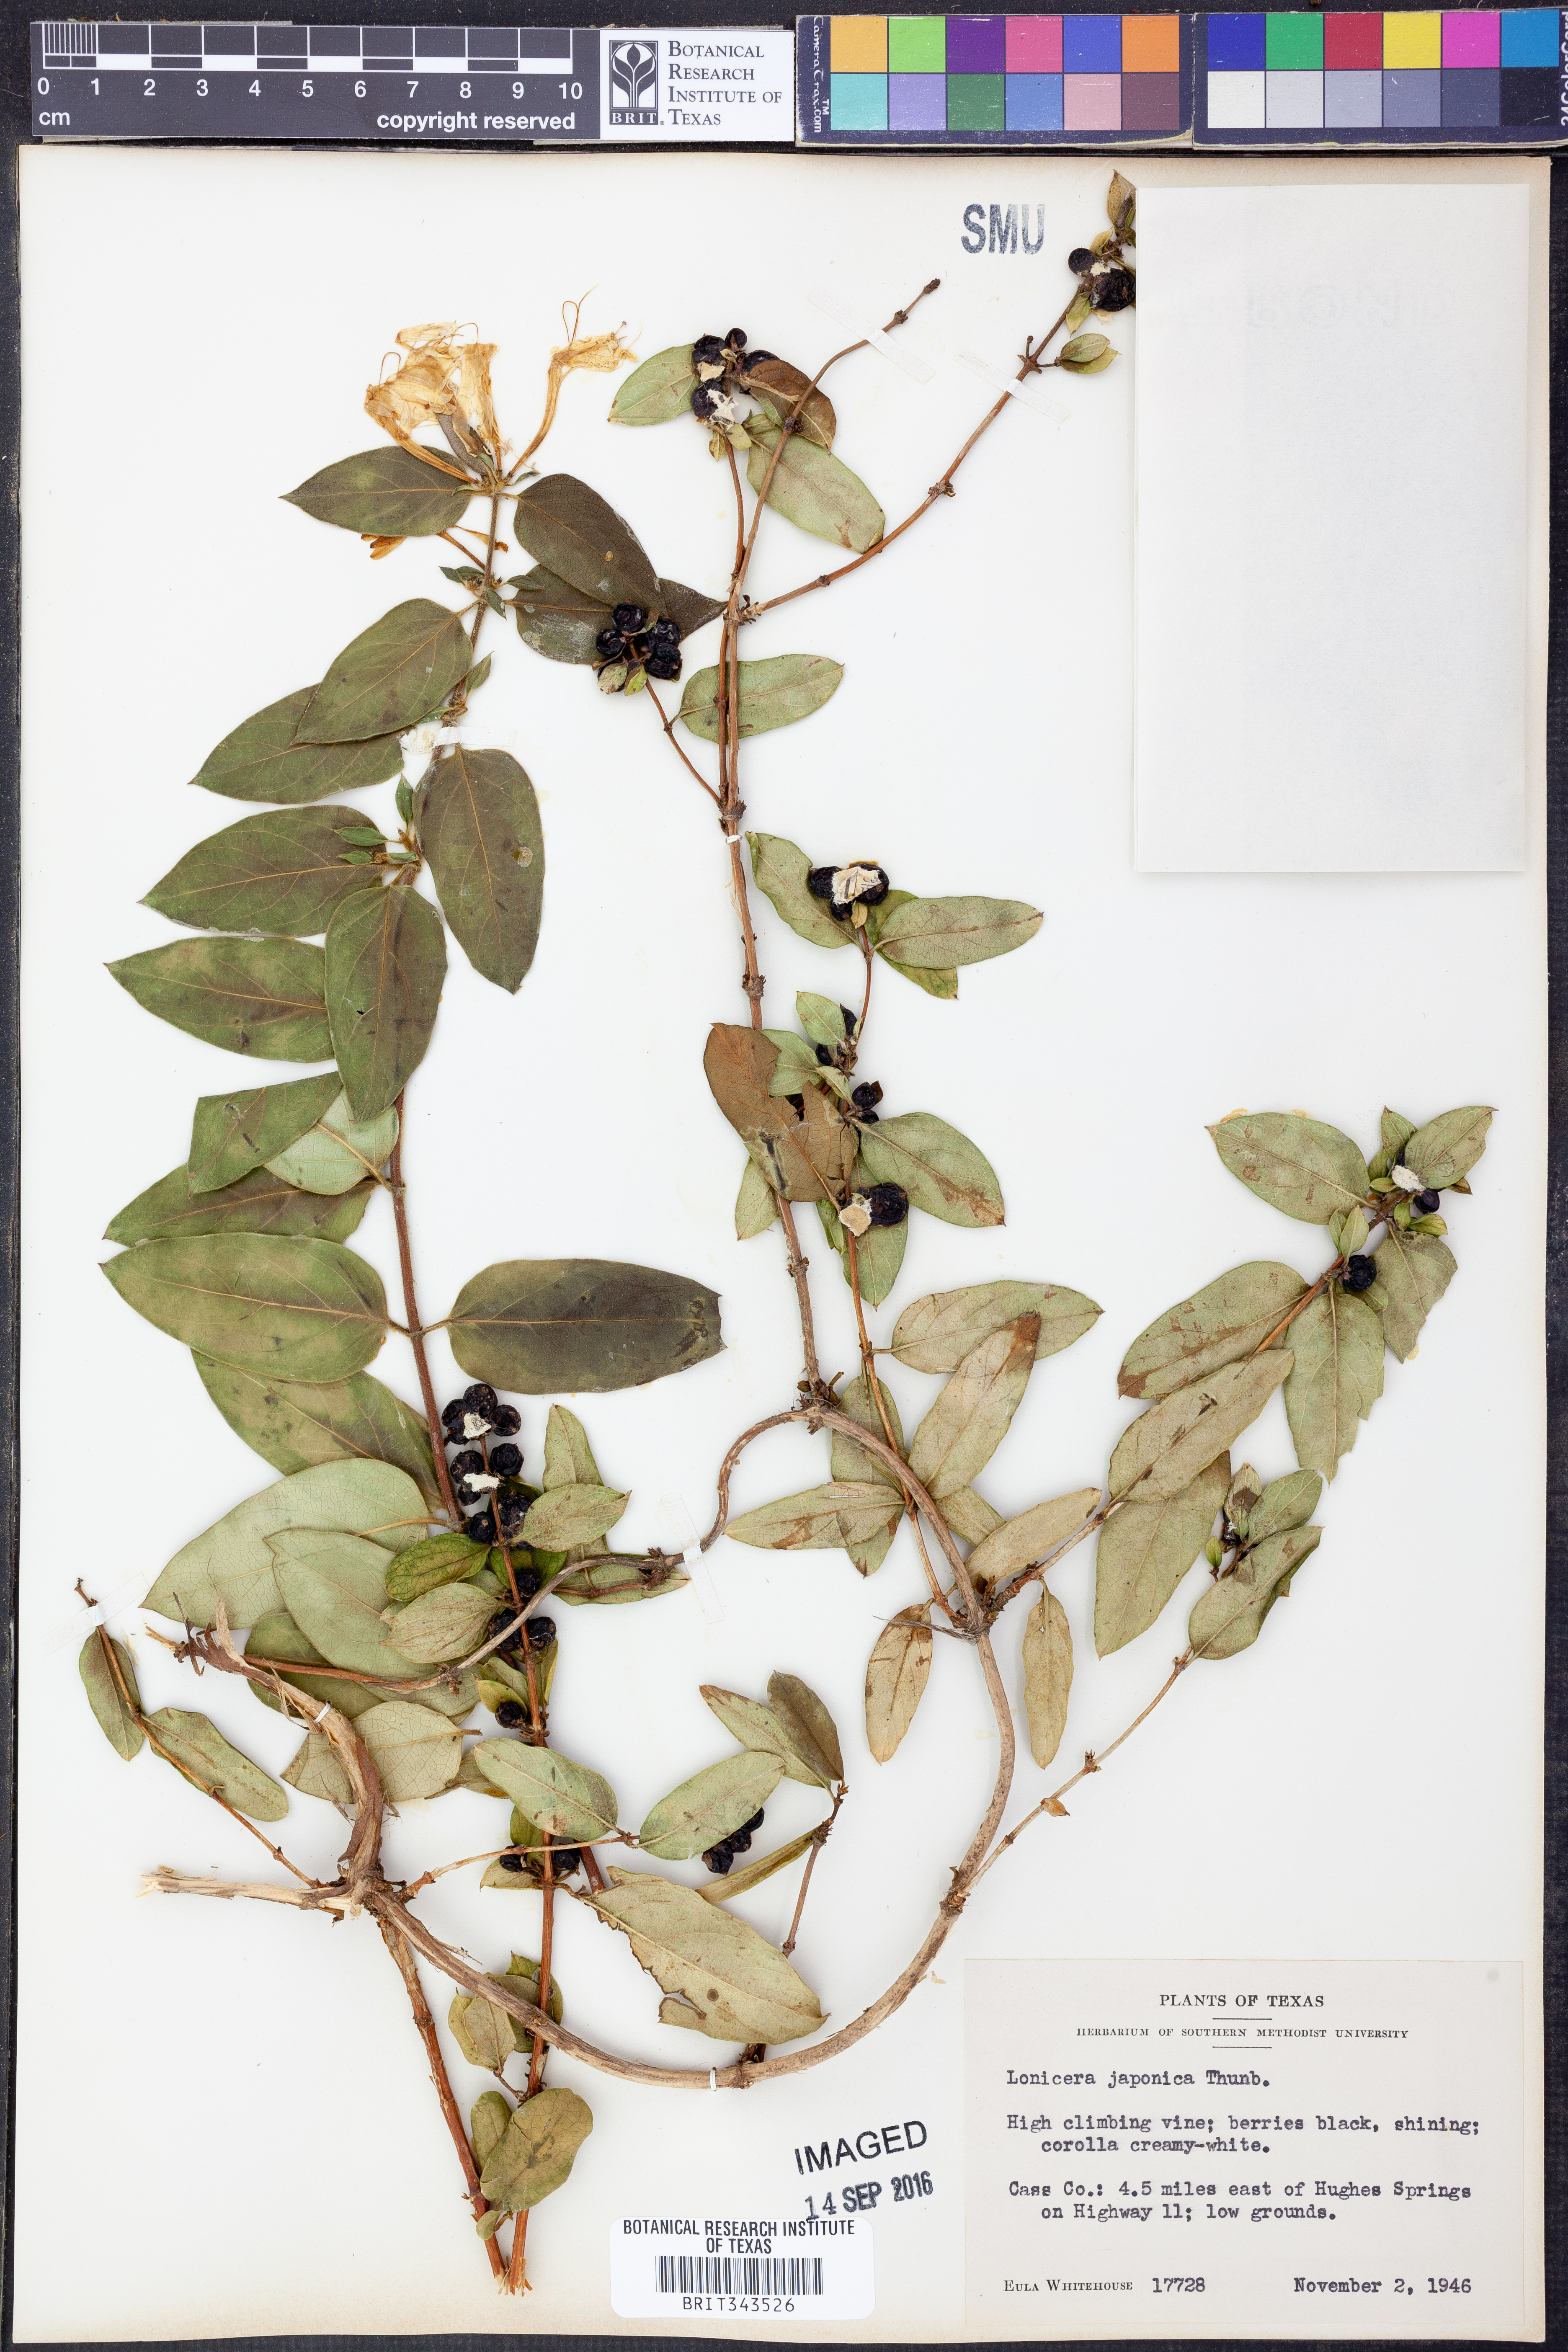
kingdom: Plantae
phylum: Tracheophyta
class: Magnoliopsida
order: Dipsacales
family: Caprifoliaceae
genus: Lonicera
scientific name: Lonicera japonica
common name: Japanese honeysuckle
